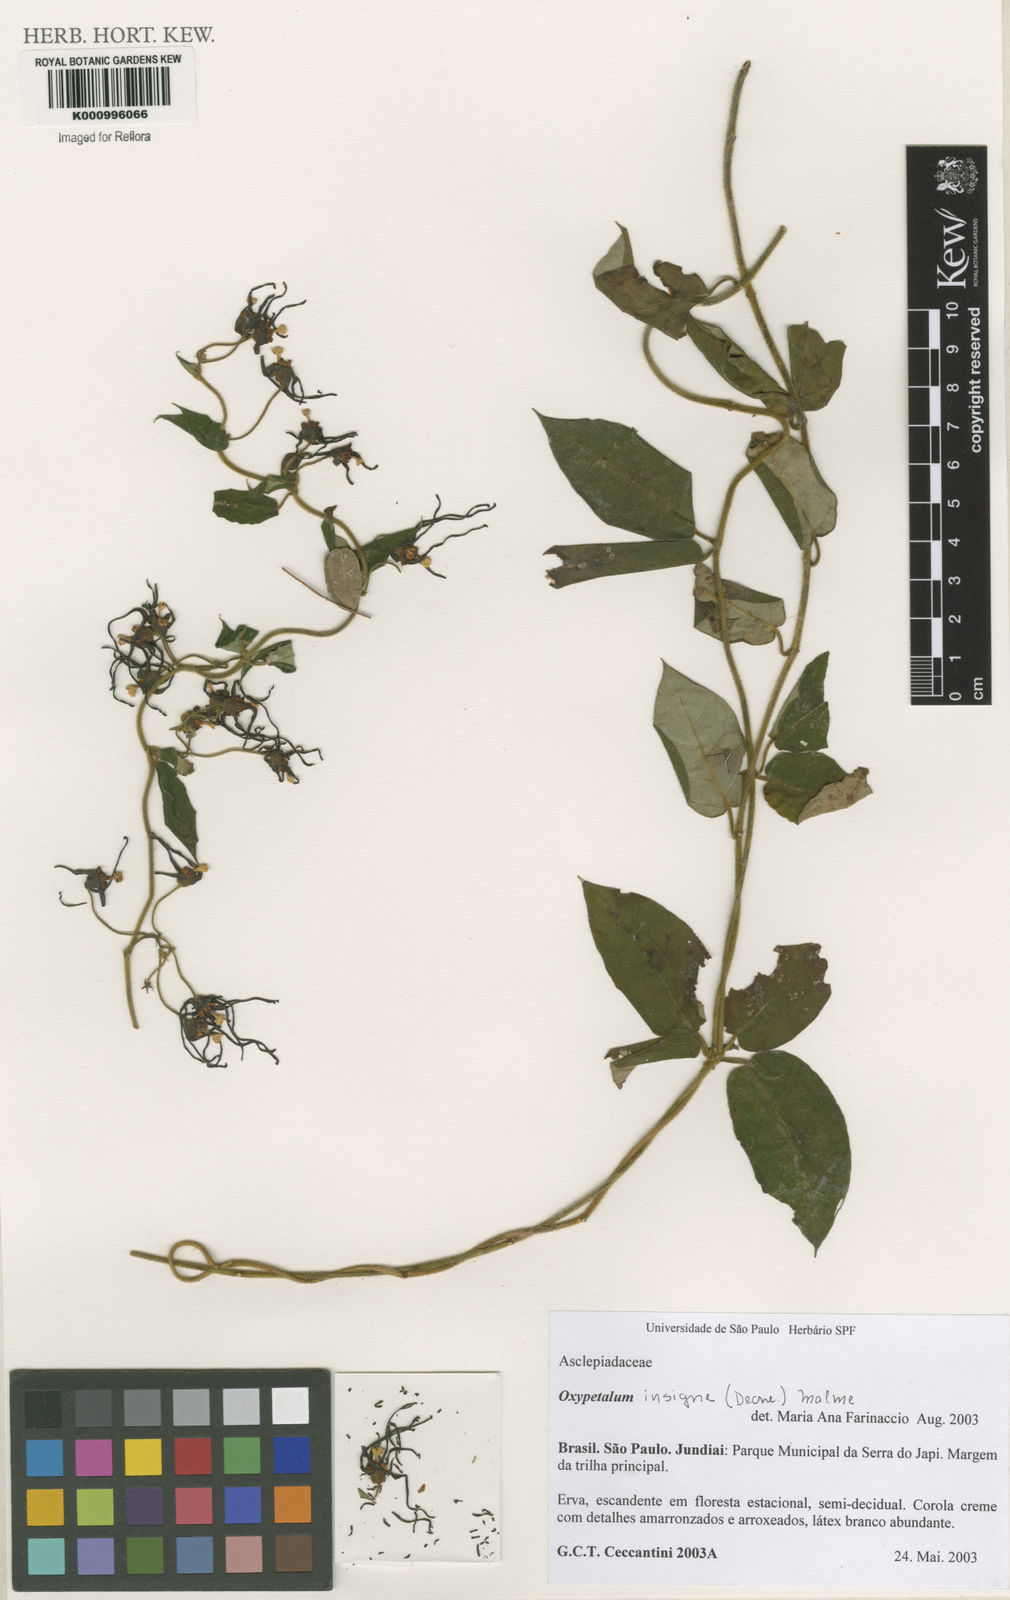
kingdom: Plantae
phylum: Tracheophyta
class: Magnoliopsida
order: Gentianales
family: Apocynaceae
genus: Oxypetalum
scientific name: Oxypetalum insigne
